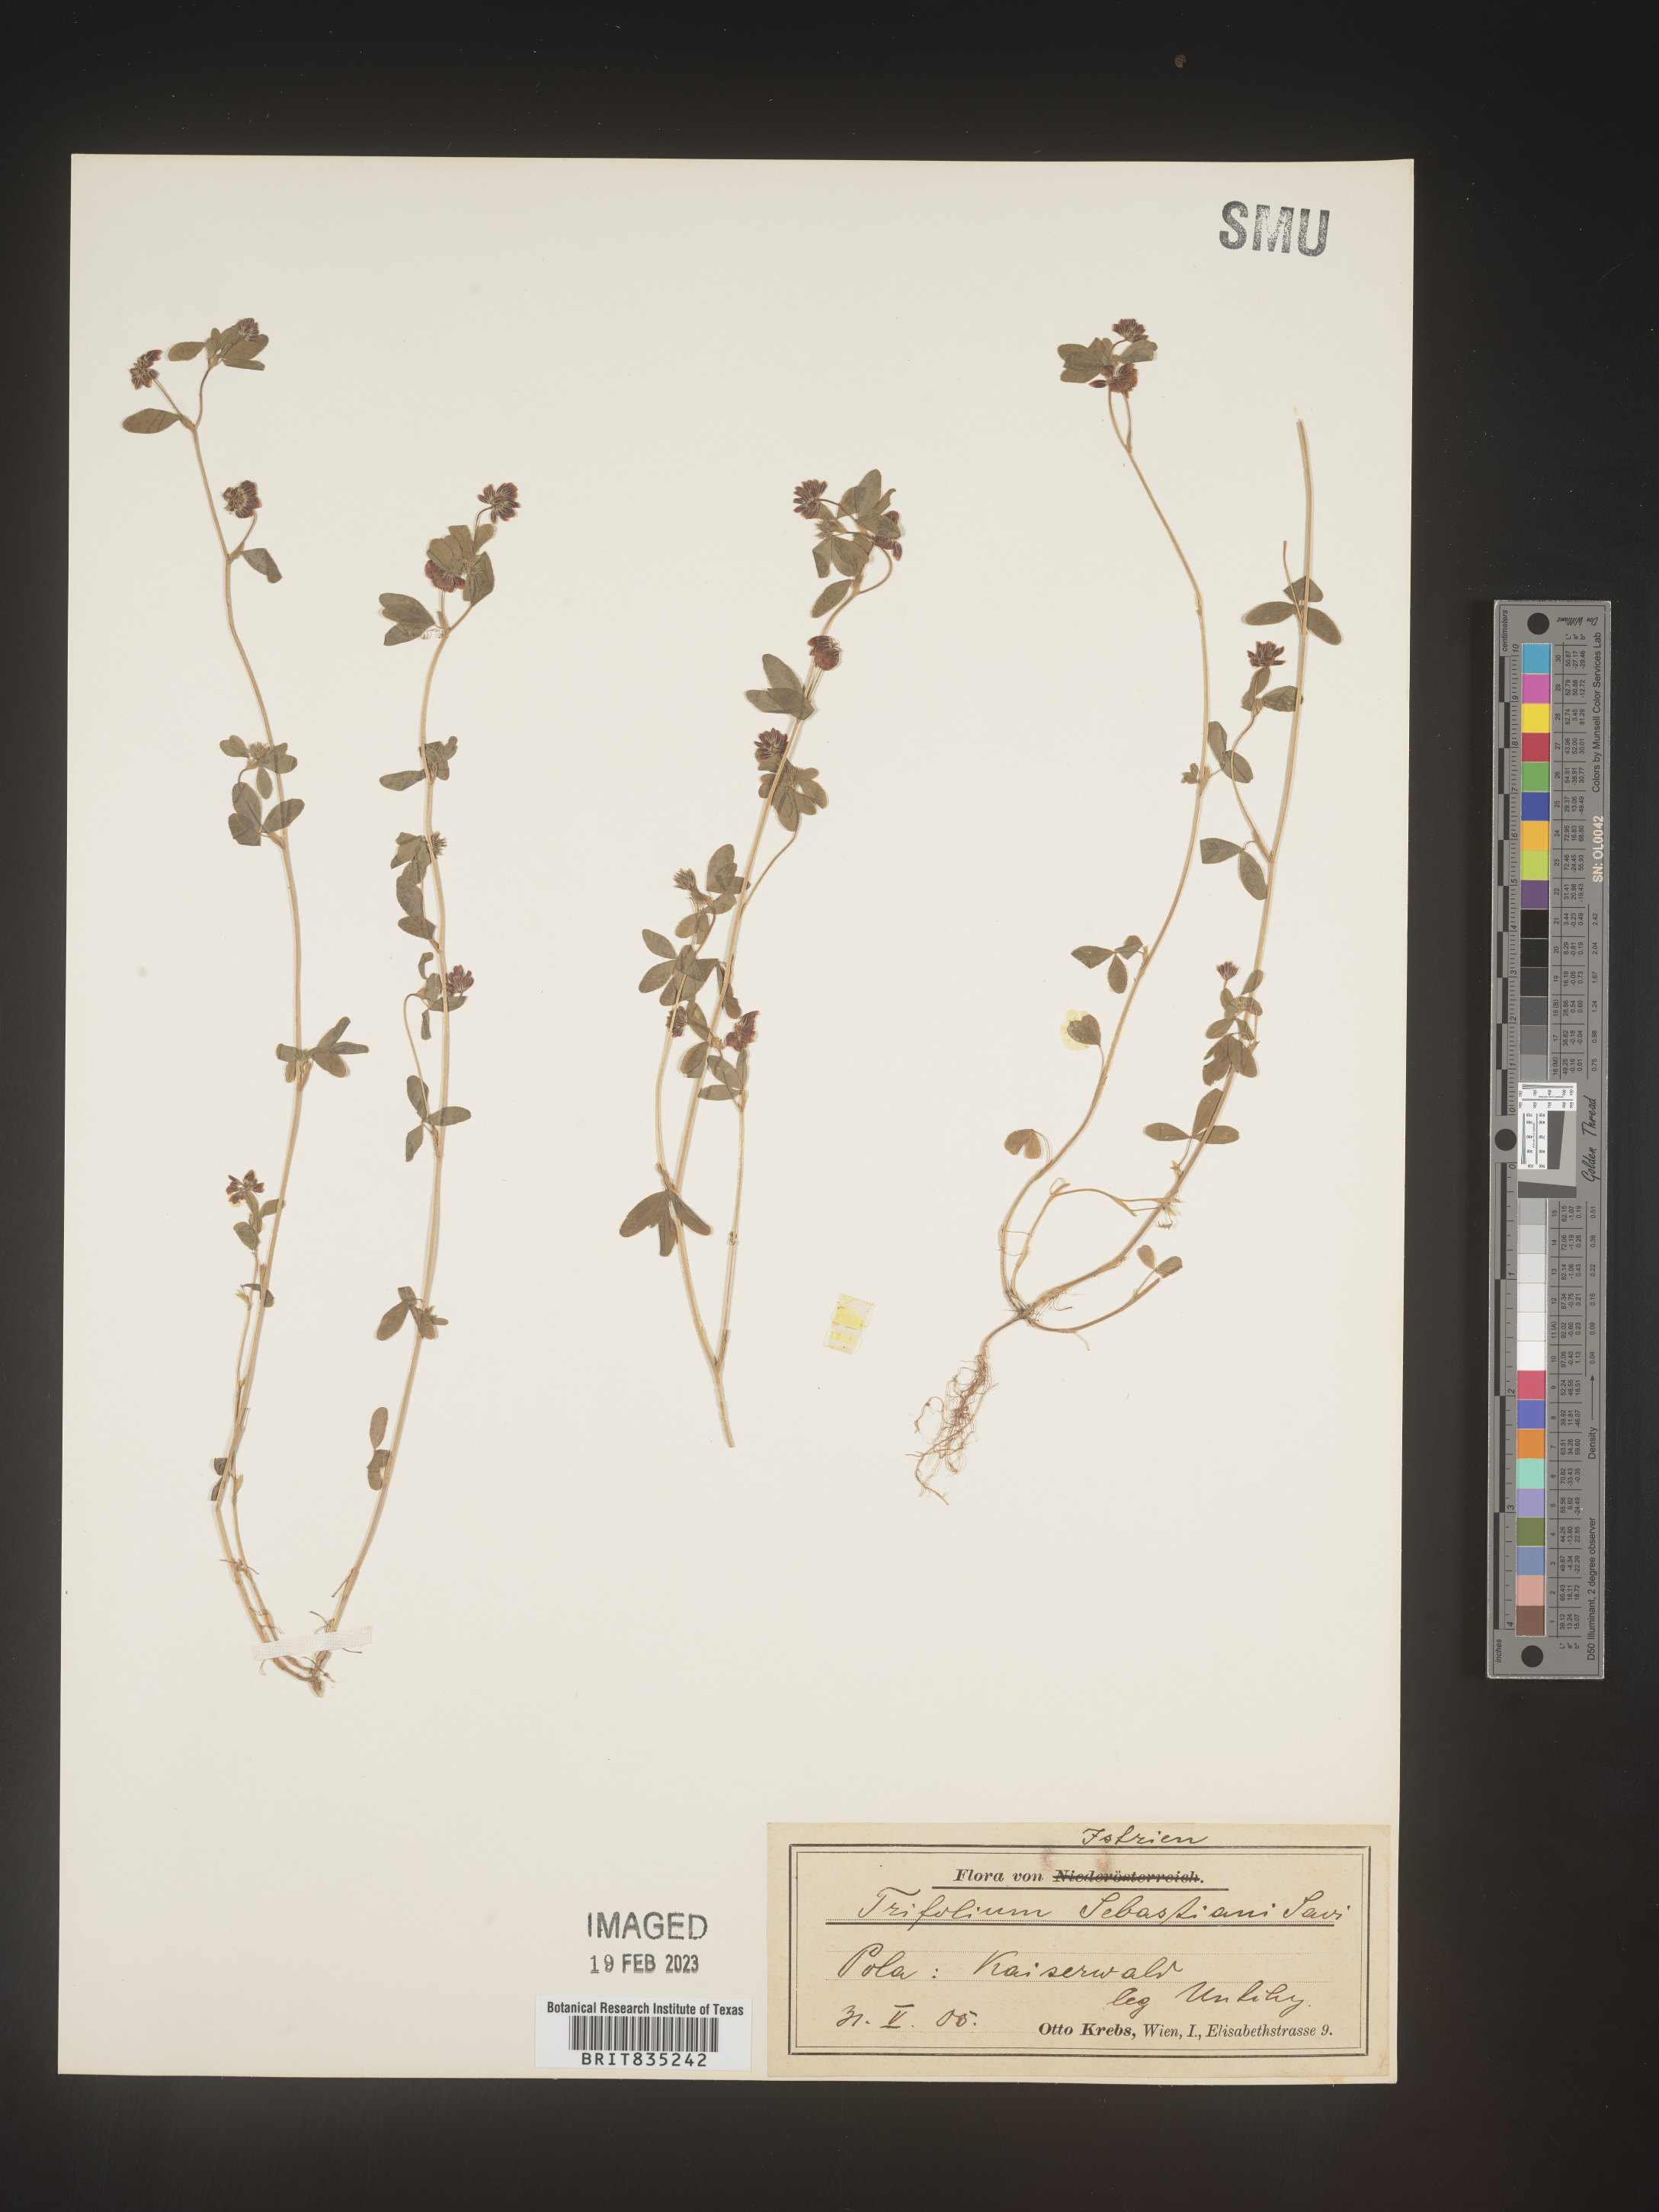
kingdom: Plantae
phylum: Tracheophyta
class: Magnoliopsida
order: Fabales
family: Fabaceae
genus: Trifolium
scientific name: Trifolium
